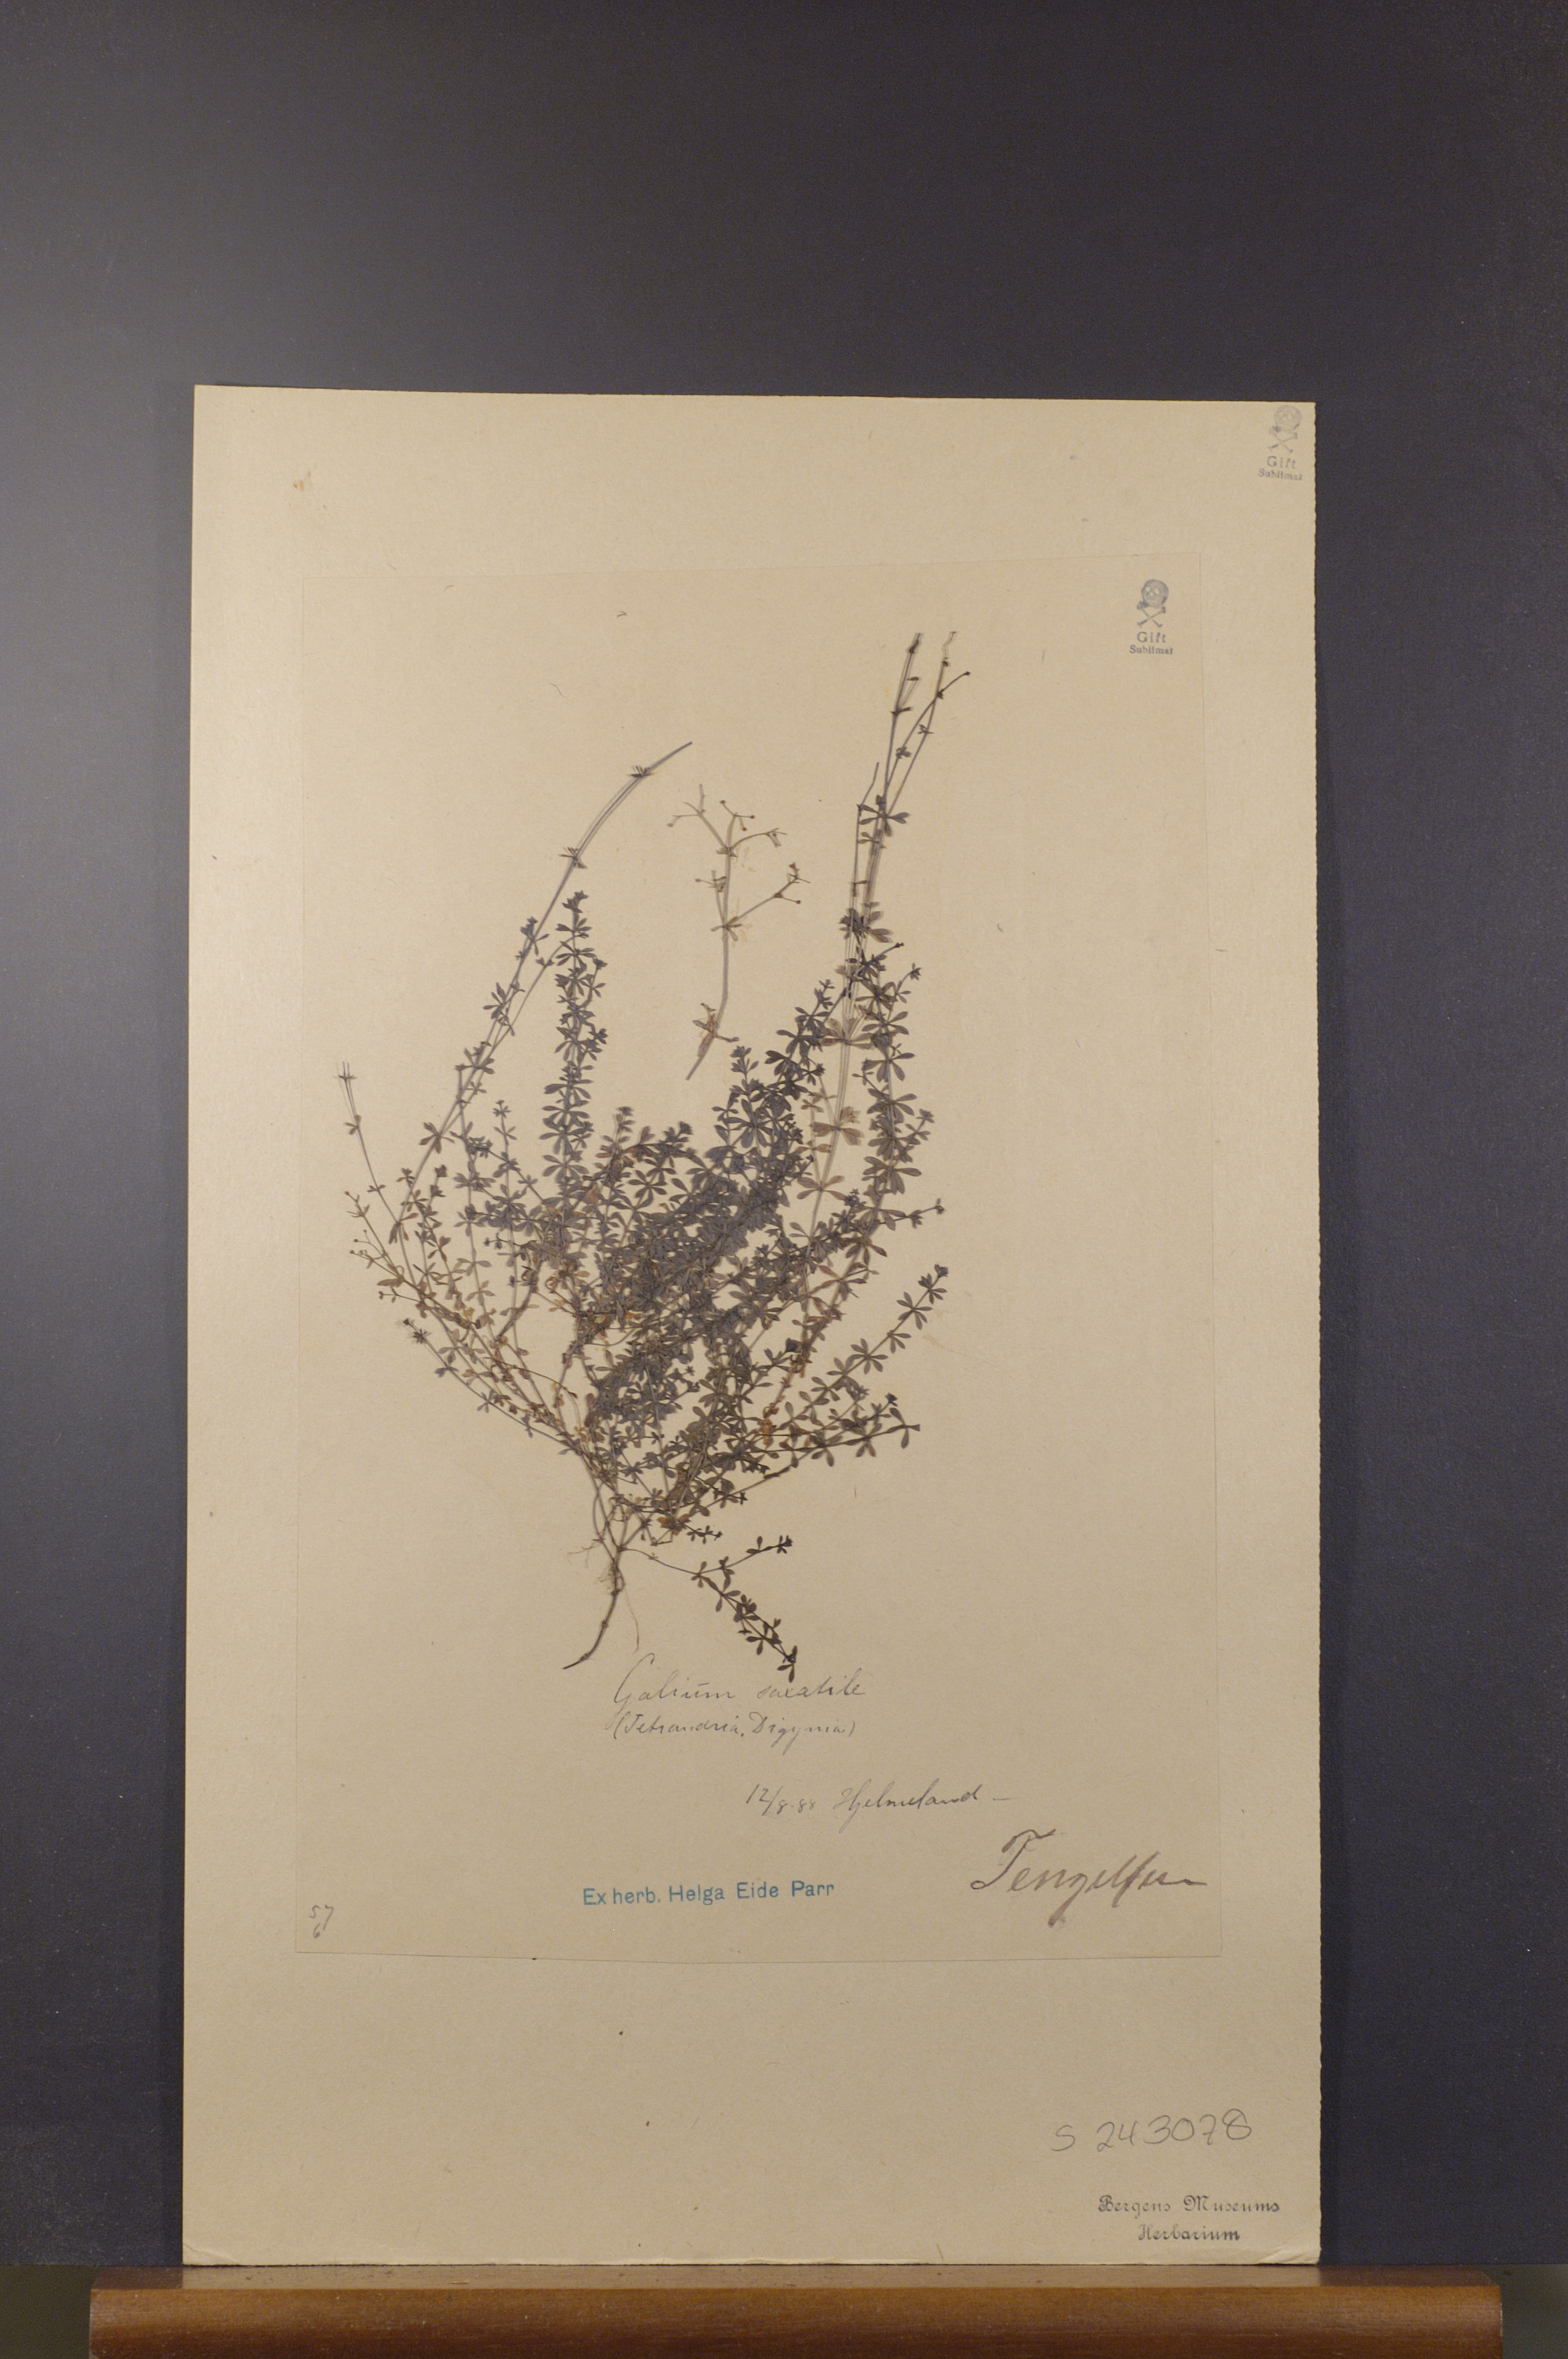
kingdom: Plantae
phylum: Tracheophyta
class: Magnoliopsida
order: Gentianales
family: Rubiaceae
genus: Galium
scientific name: Galium saxatile
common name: Heath bedstraw
